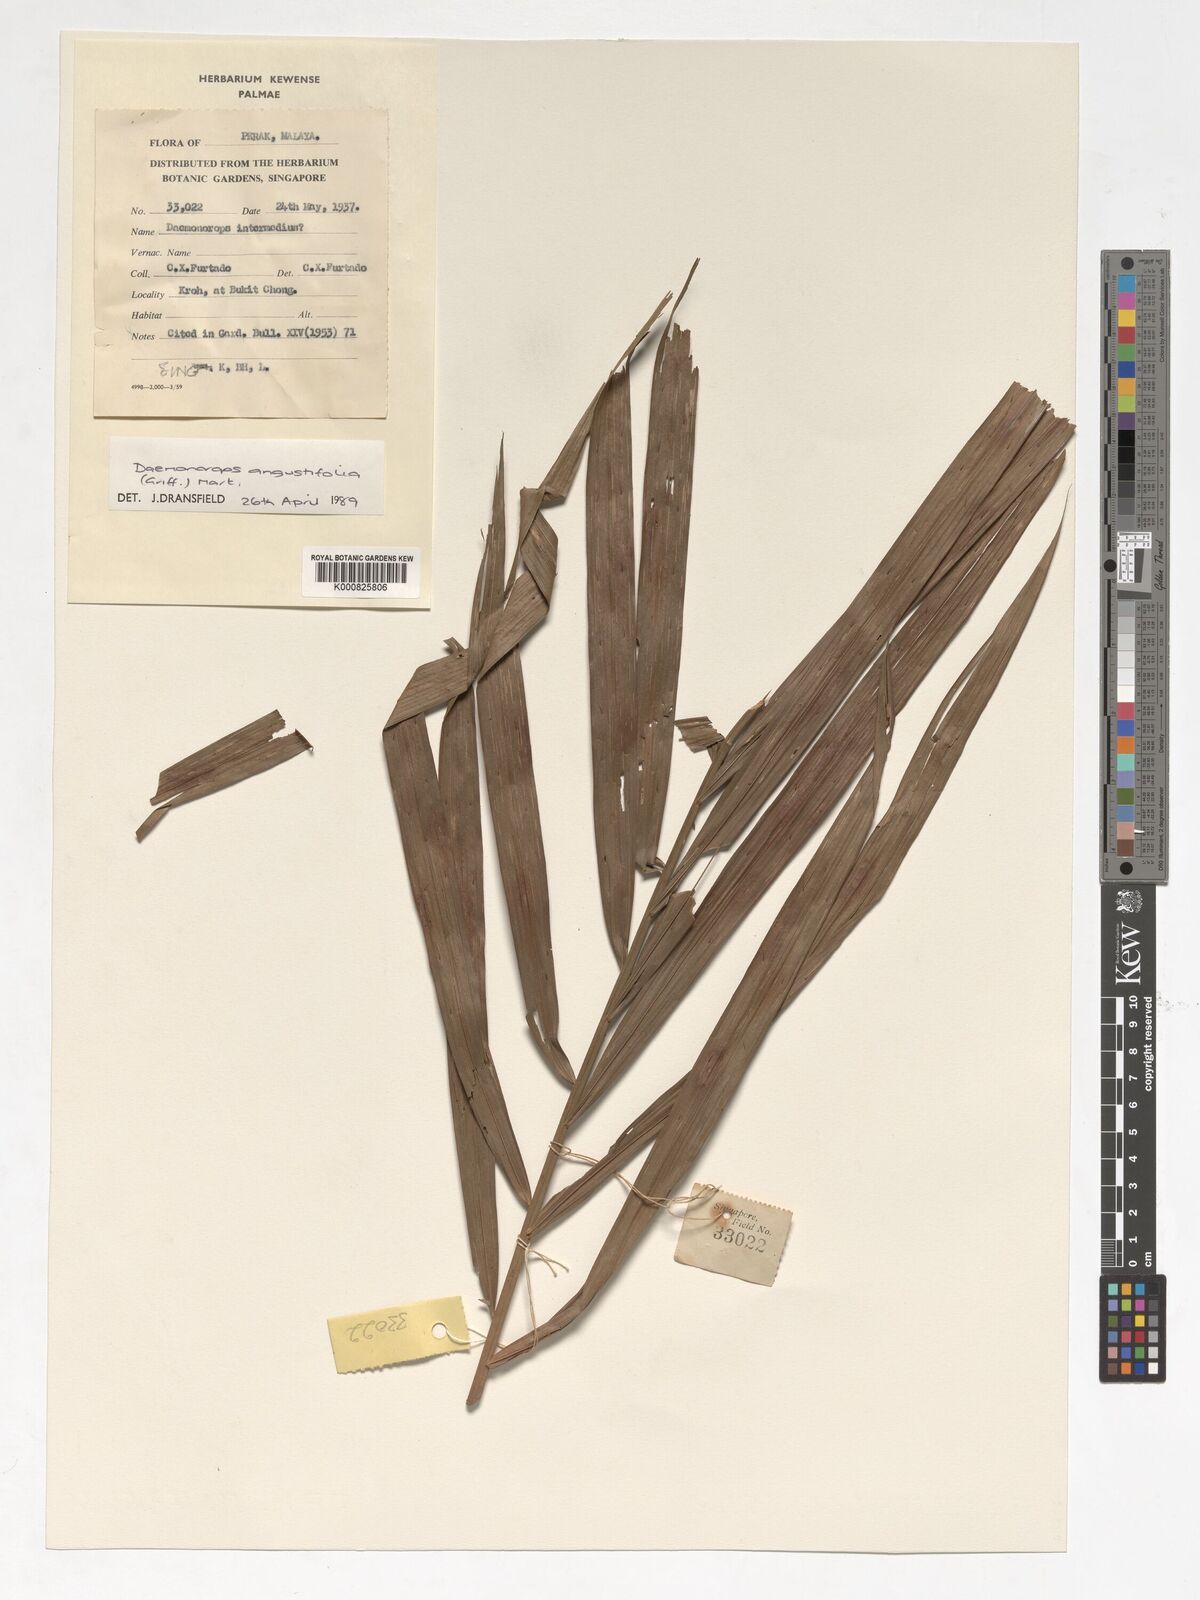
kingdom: Plantae
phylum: Tracheophyta
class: Liliopsida
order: Arecales
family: Arecaceae
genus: Calamus
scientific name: Calamus melanochaetes
